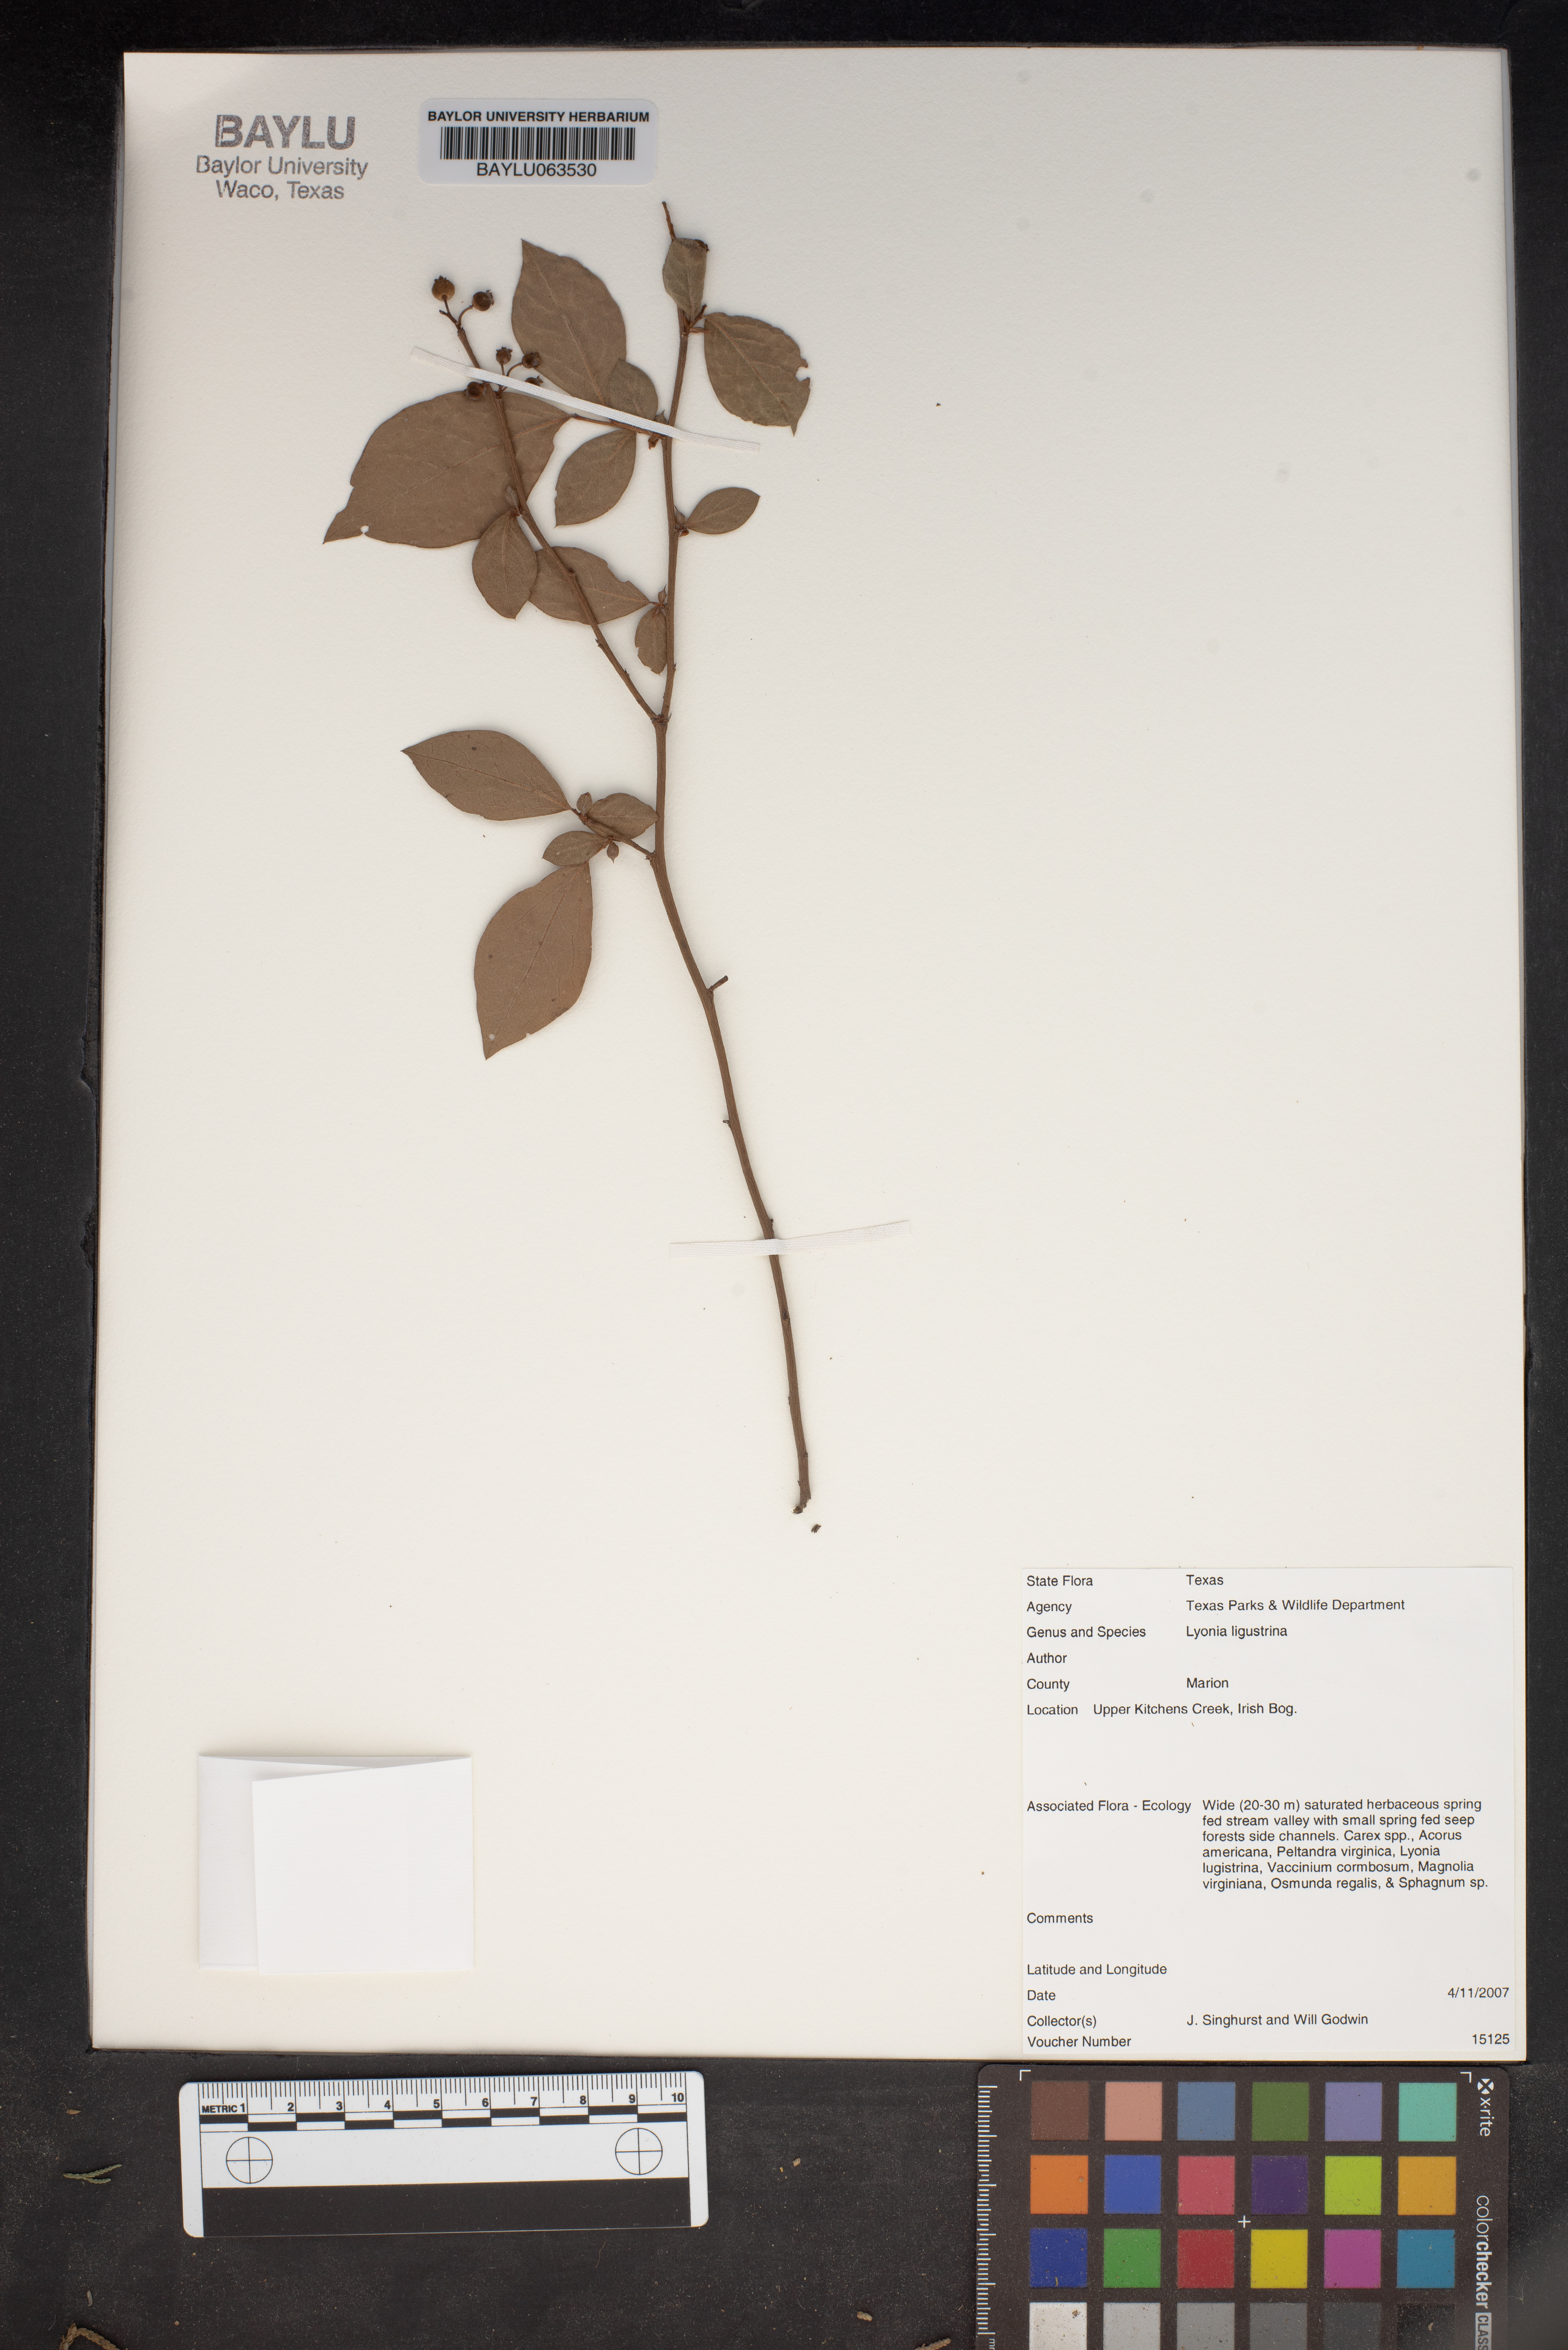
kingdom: Plantae
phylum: Tracheophyta
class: Magnoliopsida
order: Ericales
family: Ericaceae
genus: Lyonia
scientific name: Lyonia ligustrina
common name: Maleberry
